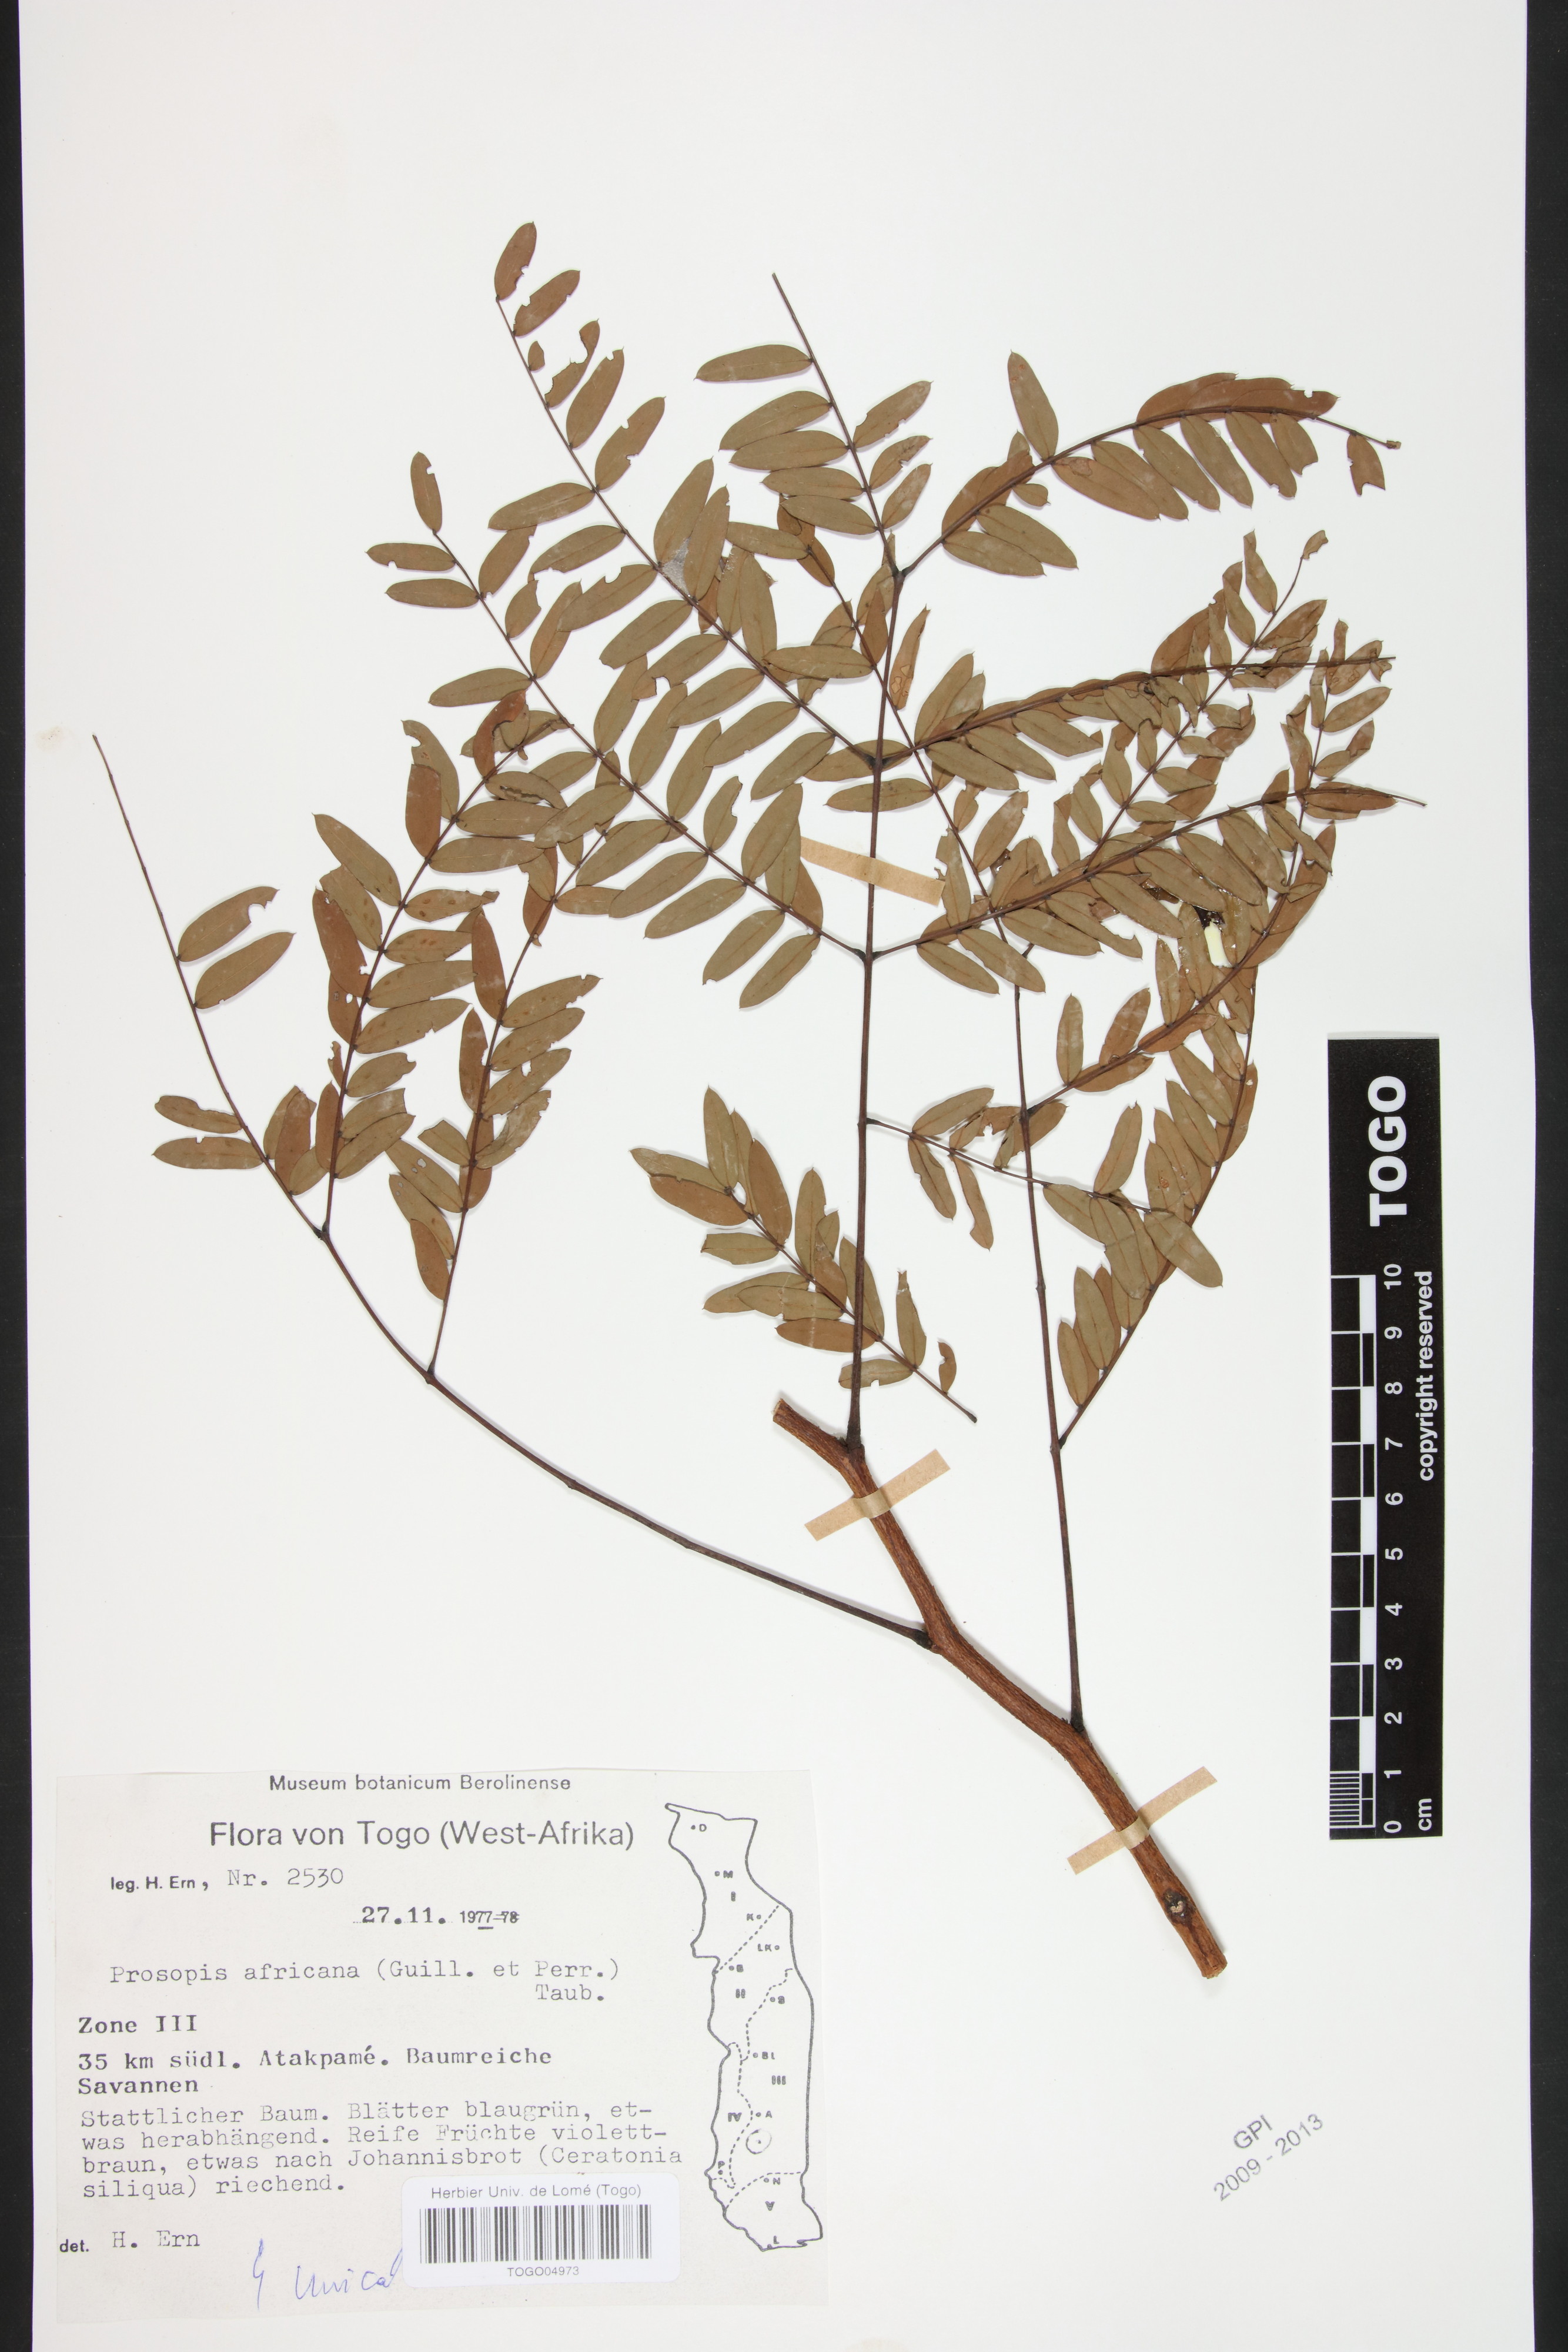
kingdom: Plantae
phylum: Tracheophyta
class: Magnoliopsida
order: Fabales
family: Fabaceae
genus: Prosopis
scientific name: Prosopis africana
